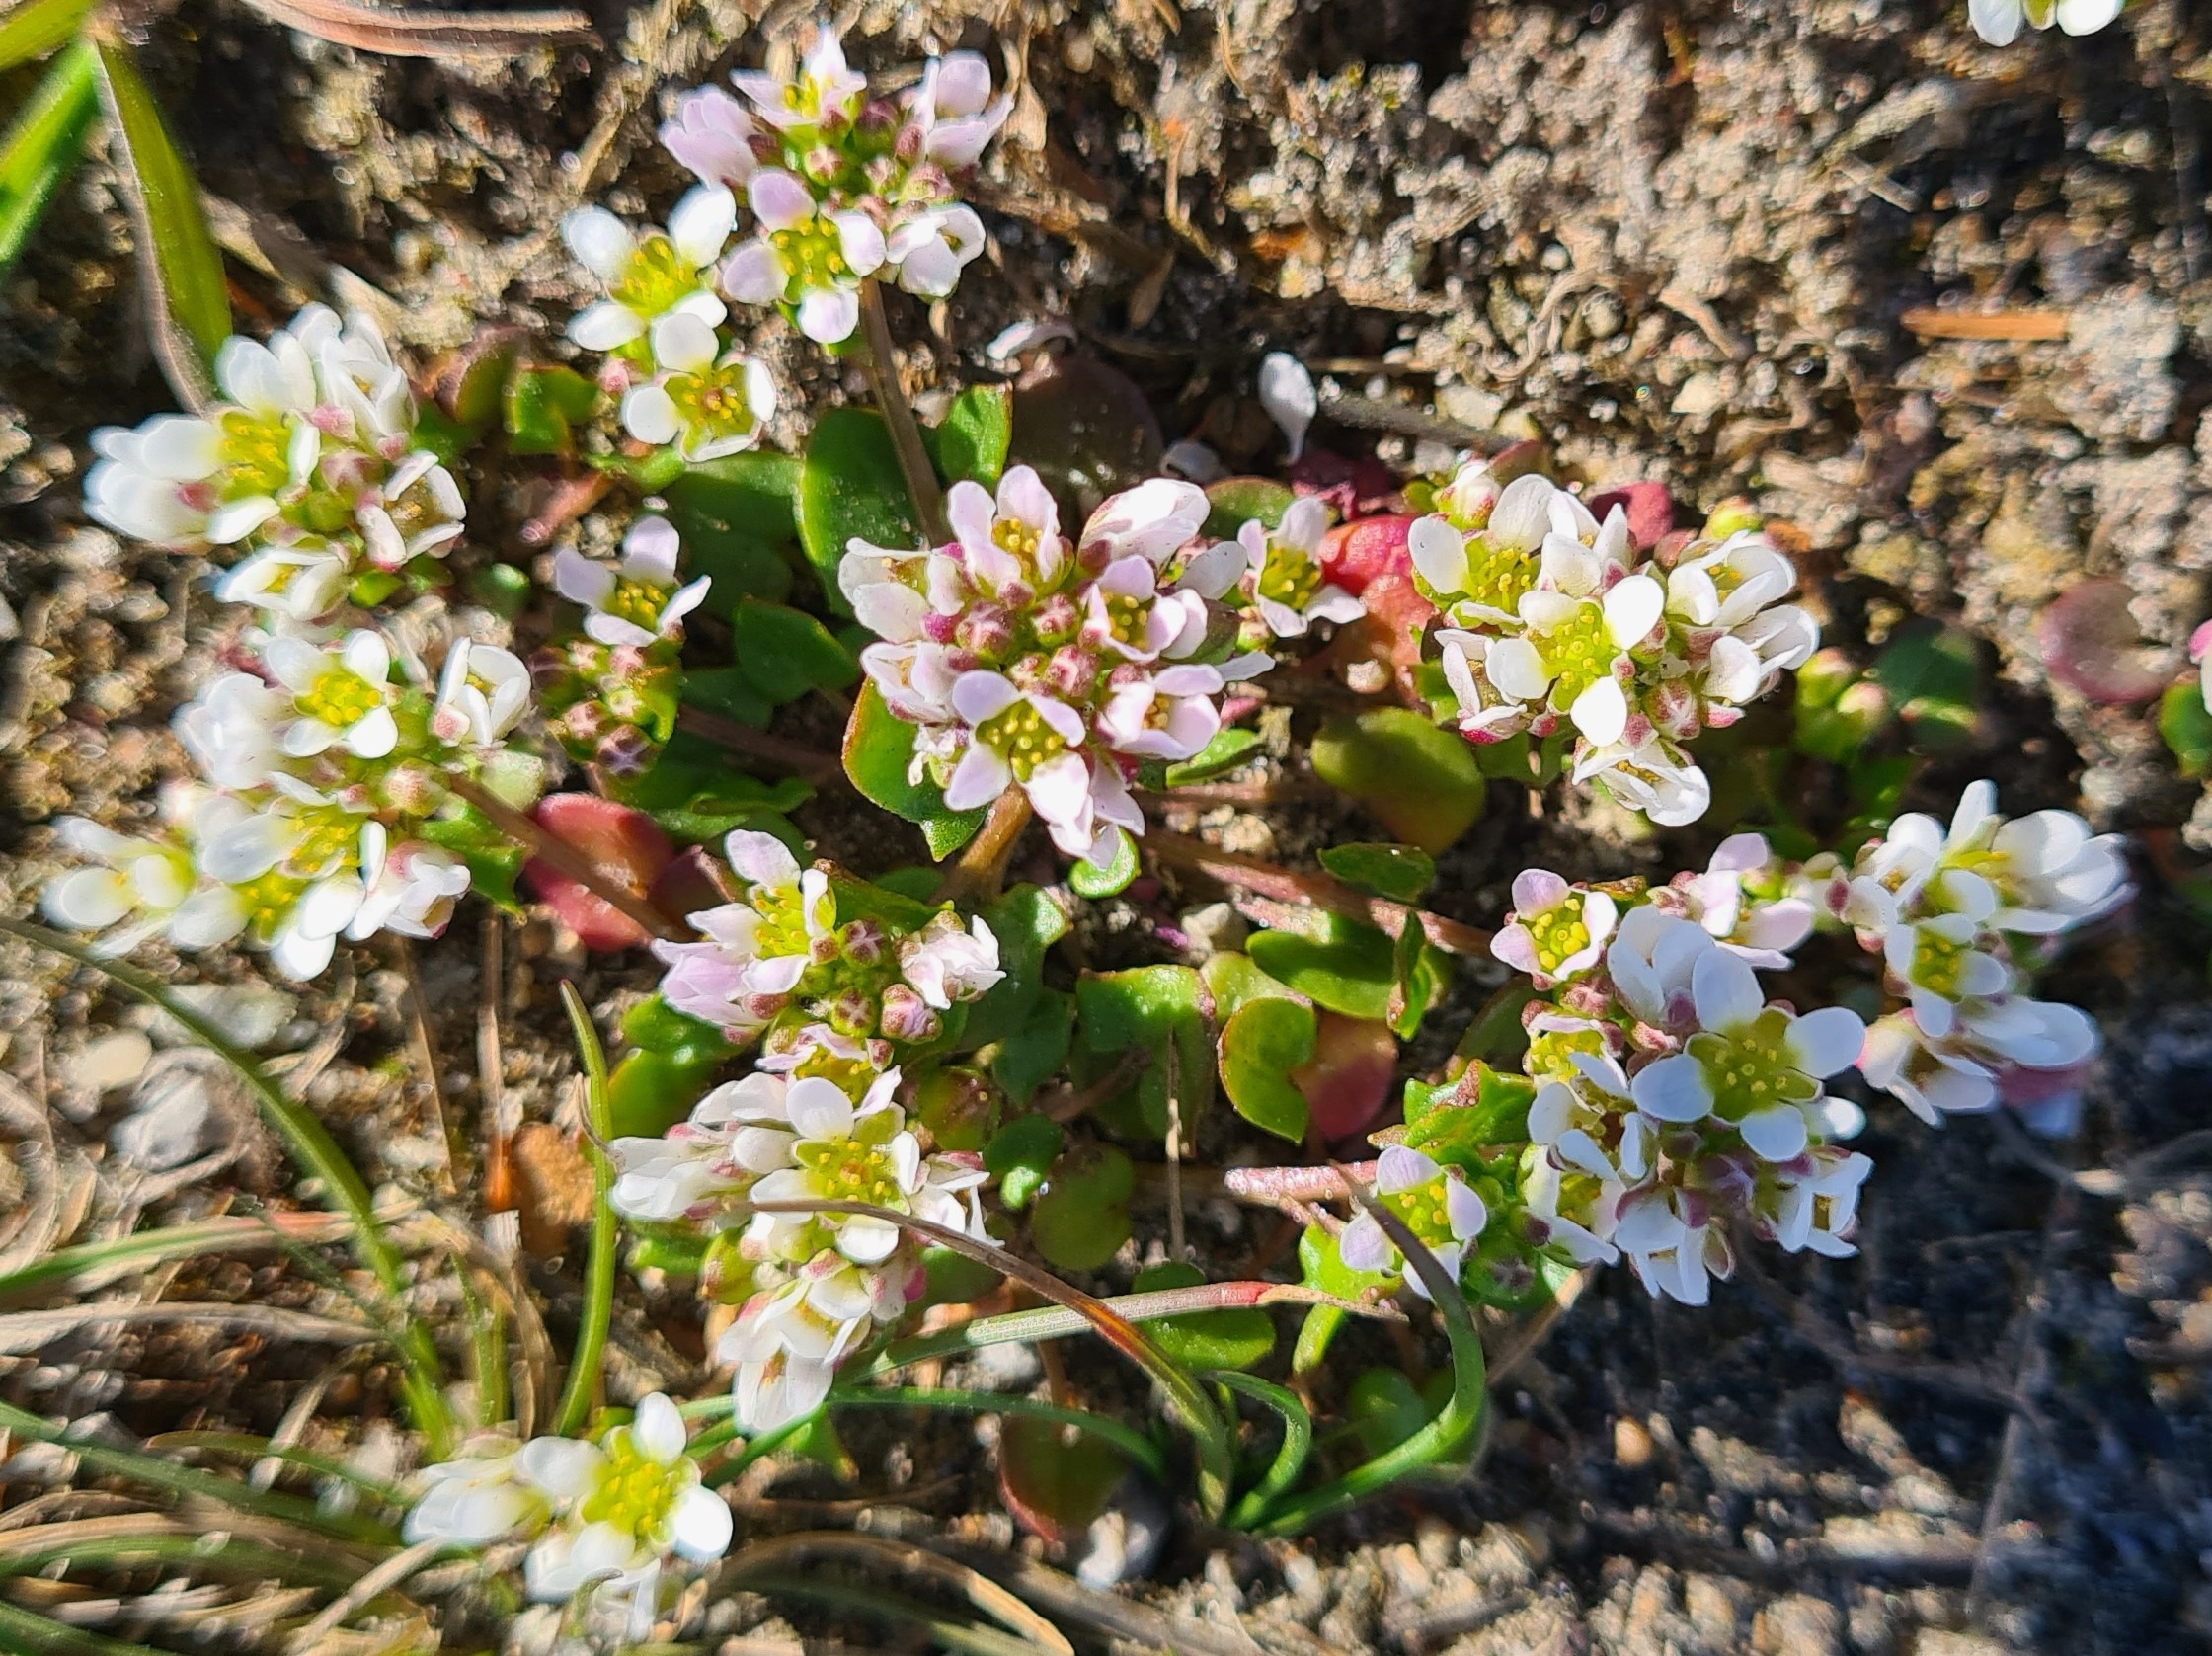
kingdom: Plantae
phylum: Tracheophyta
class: Magnoliopsida
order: Brassicales
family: Brassicaceae
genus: Cochlearia
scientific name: Cochlearia danica
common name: Dansk kokleare
